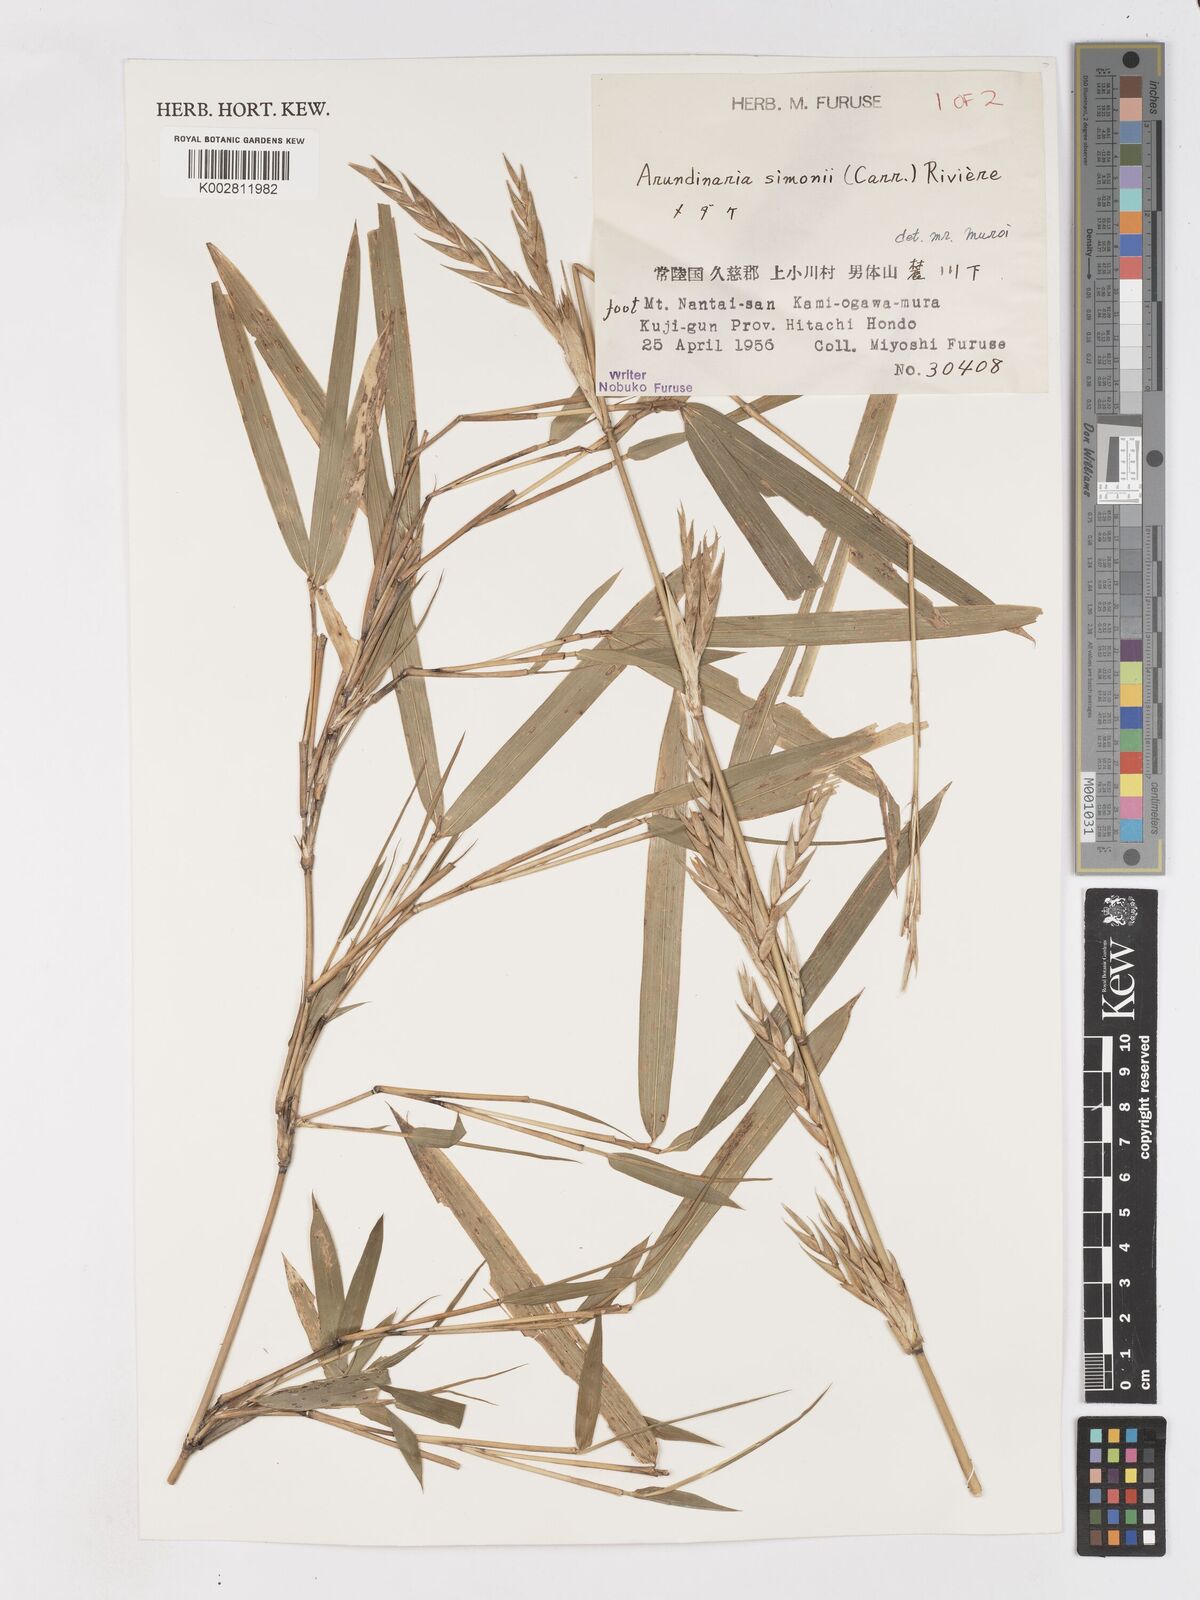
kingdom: Plantae
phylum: Tracheophyta
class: Liliopsida
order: Poales
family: Poaceae
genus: Pleioblastus
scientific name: Pleioblastus simonii
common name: Simon bamboo
